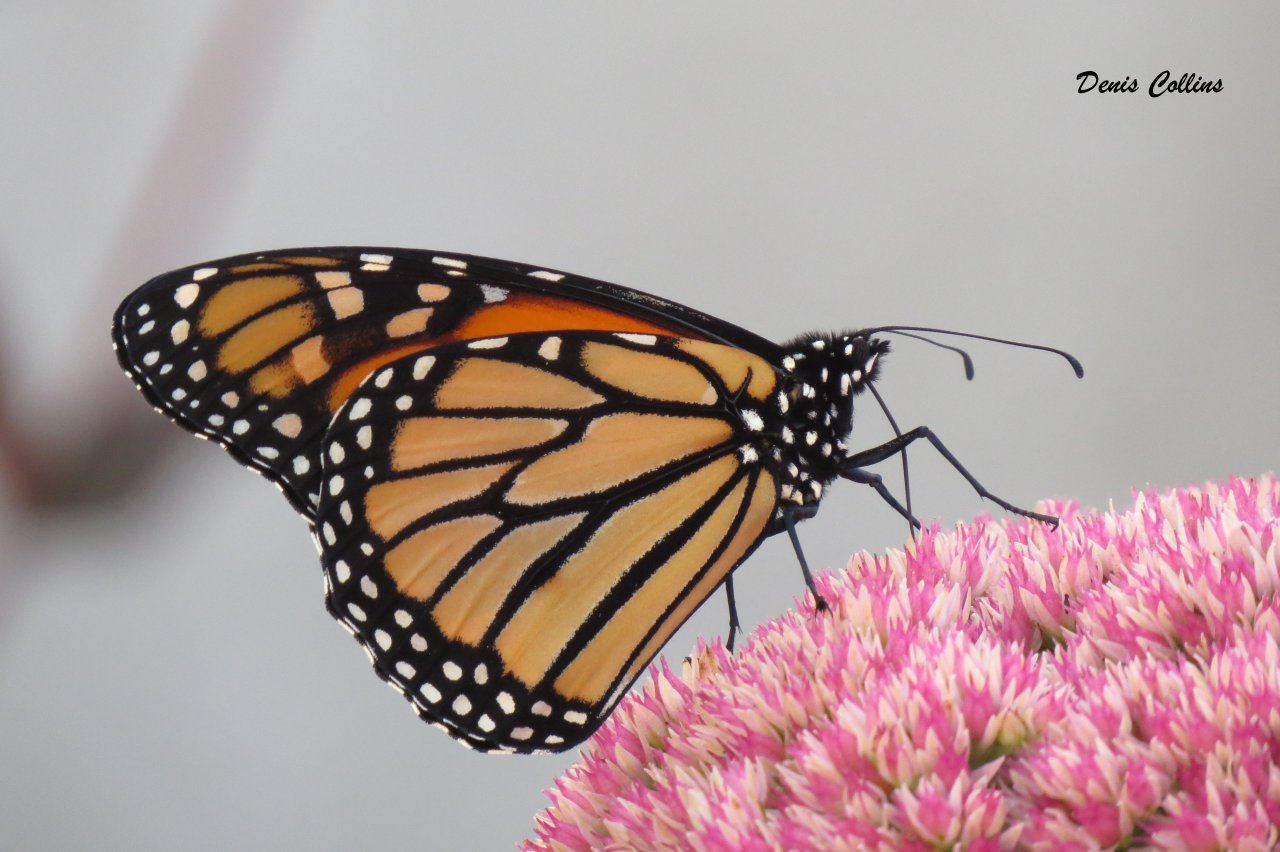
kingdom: Animalia
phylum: Arthropoda
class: Insecta
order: Lepidoptera
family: Nymphalidae
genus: Danaus
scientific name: Danaus plexippus
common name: Monarch
